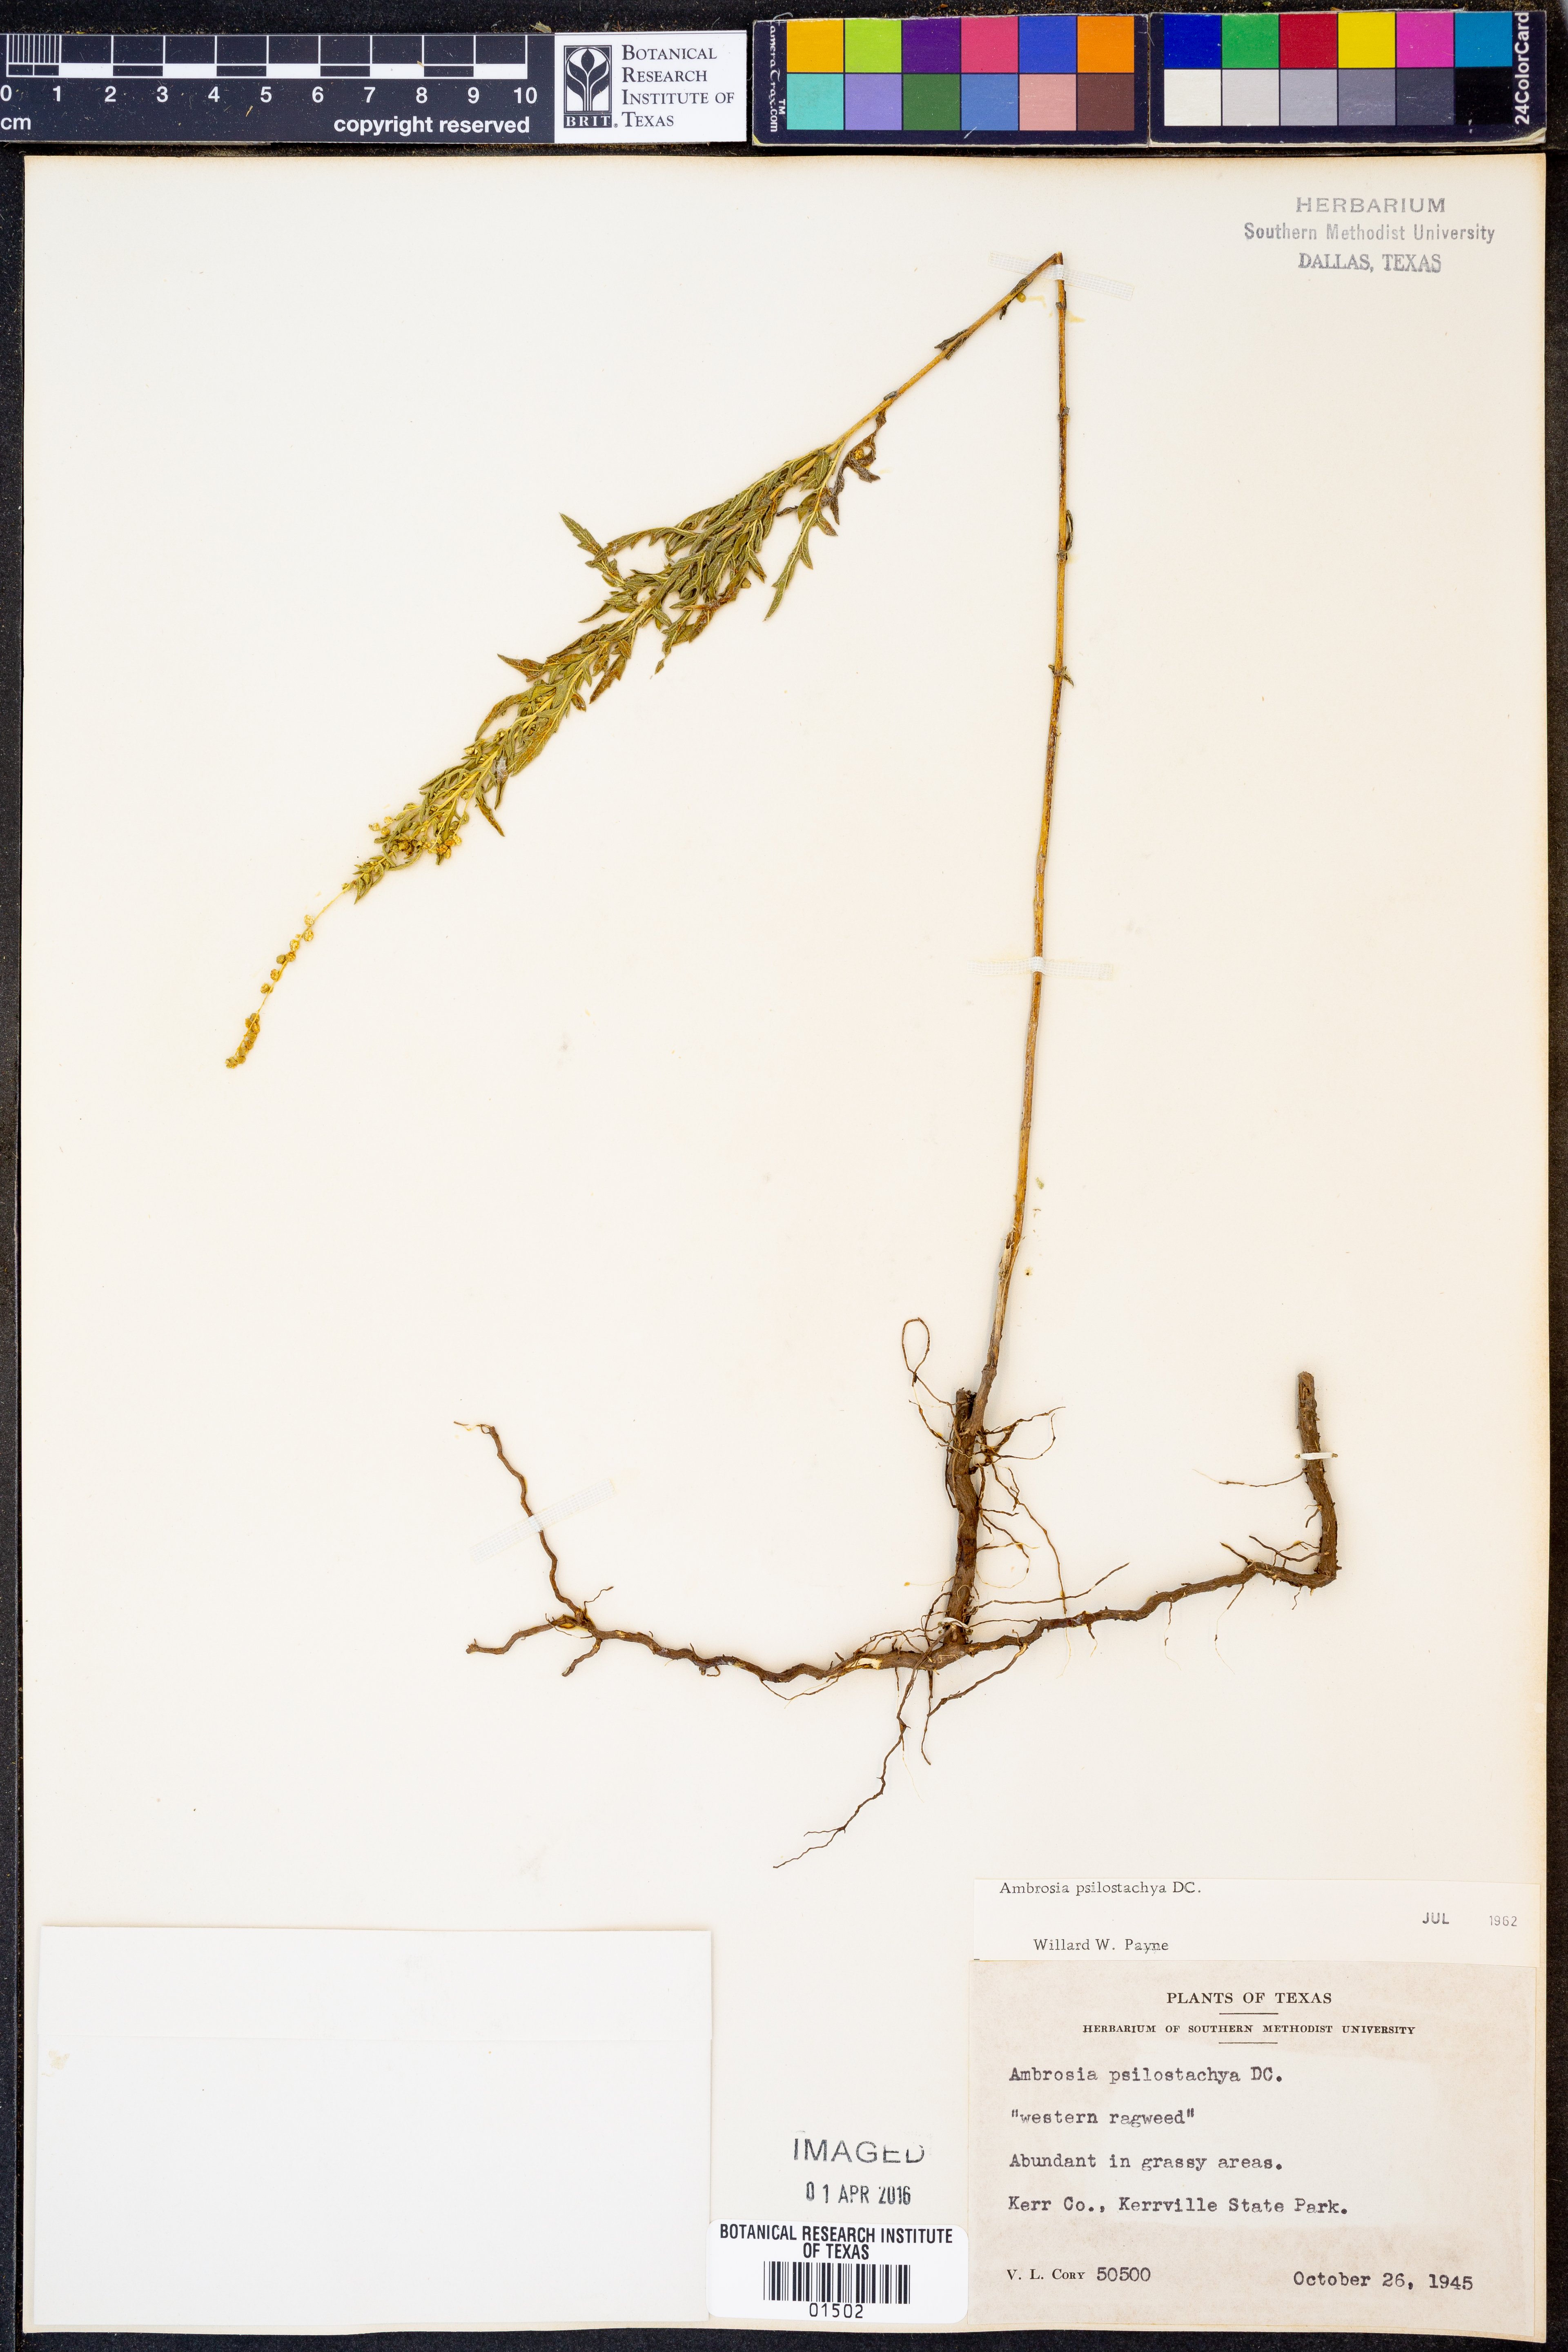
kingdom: Plantae
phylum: Tracheophyta
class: Magnoliopsida
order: Asterales
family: Asteraceae
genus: Ambrosia
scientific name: Ambrosia psilostachya
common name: Perennial ragweed
